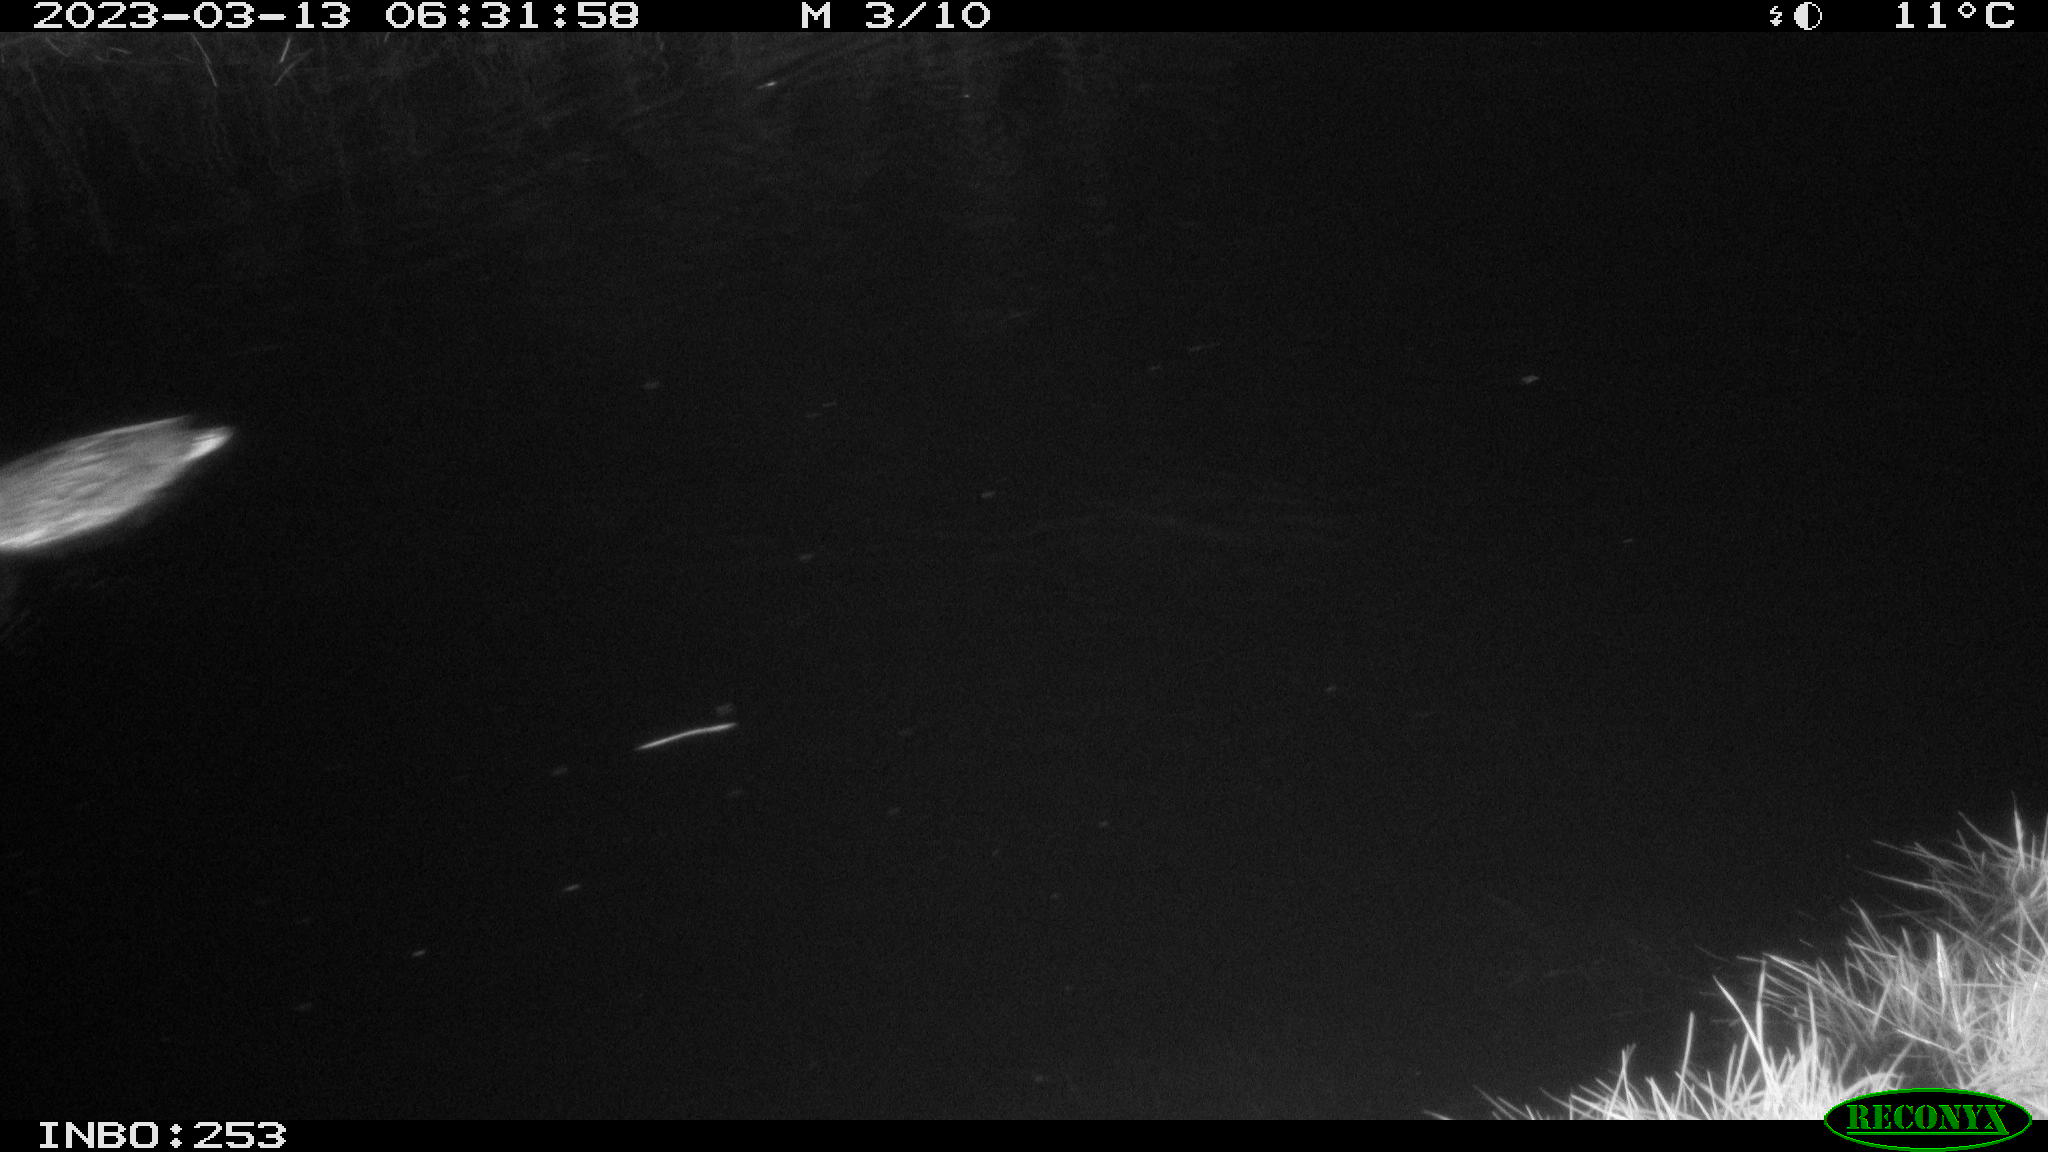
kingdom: Animalia
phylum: Chordata
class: Aves
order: Anseriformes
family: Anatidae
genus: Anas
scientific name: Anas
